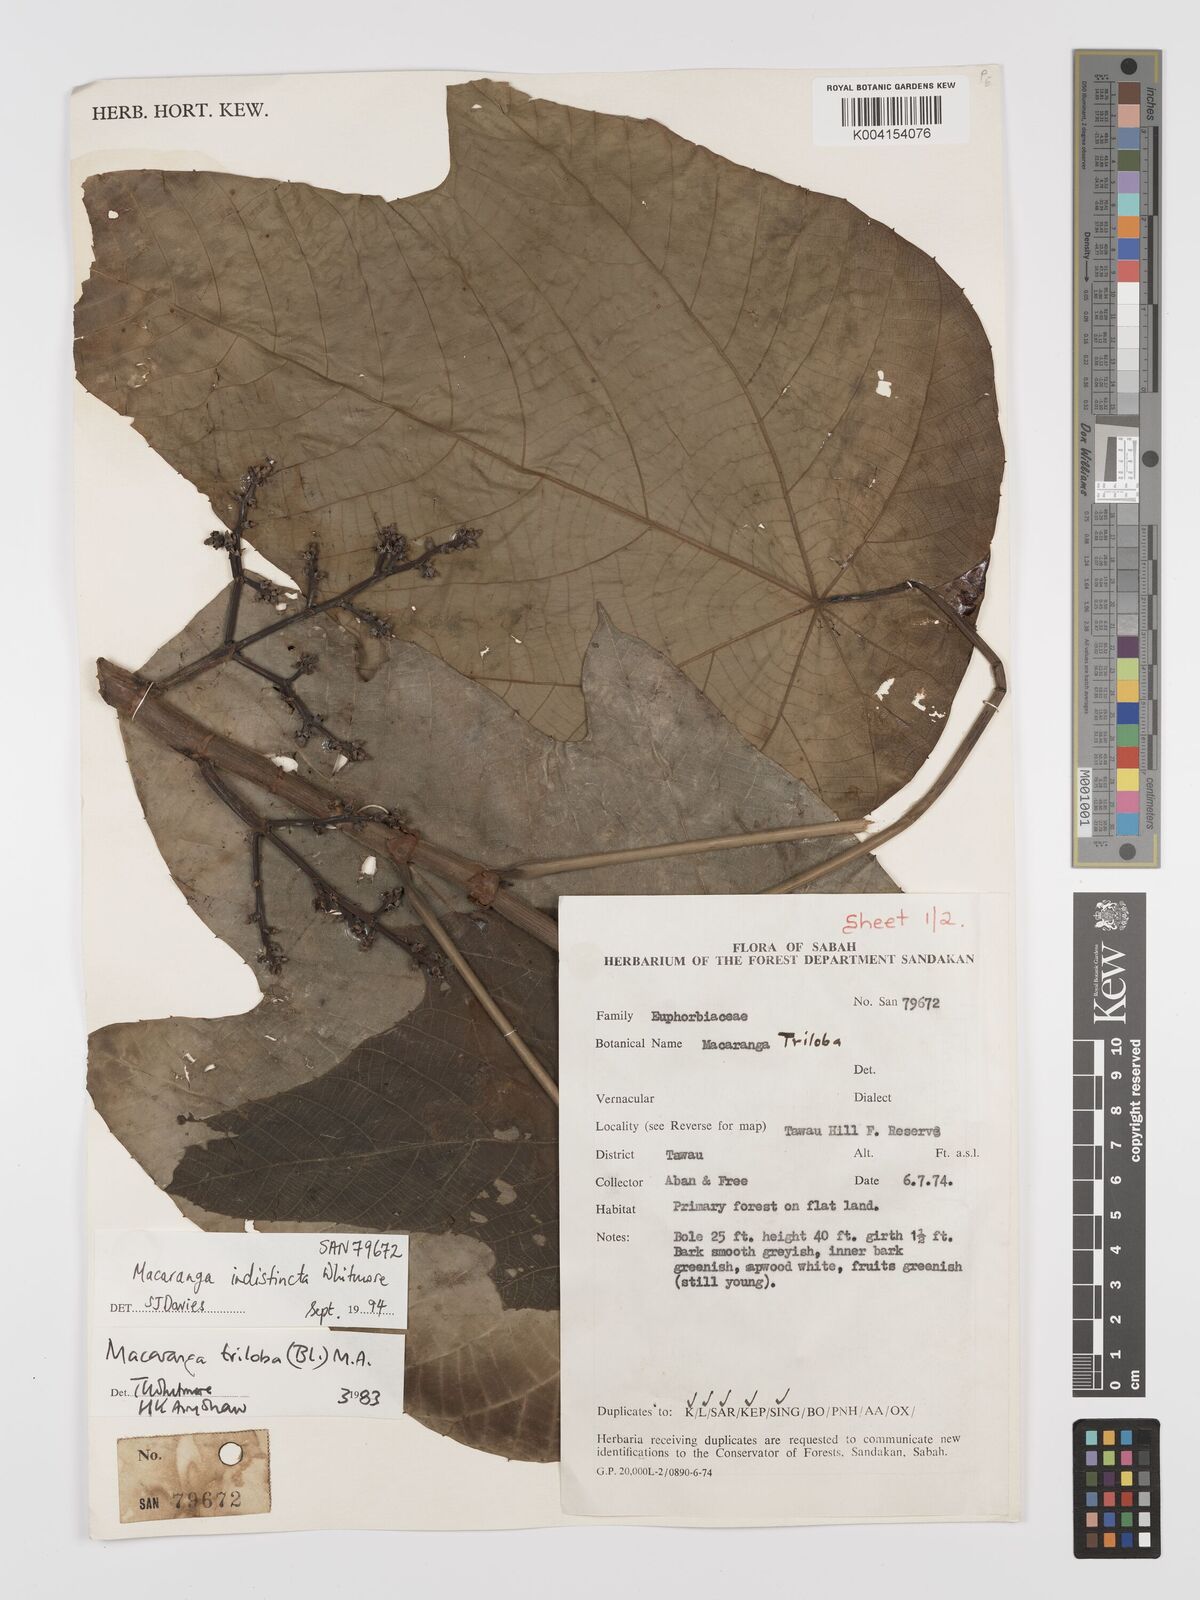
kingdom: Plantae
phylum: Tracheophyta
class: Magnoliopsida
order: Malpighiales
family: Euphorbiaceae
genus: Macaranga
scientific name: Macaranga indistincta
